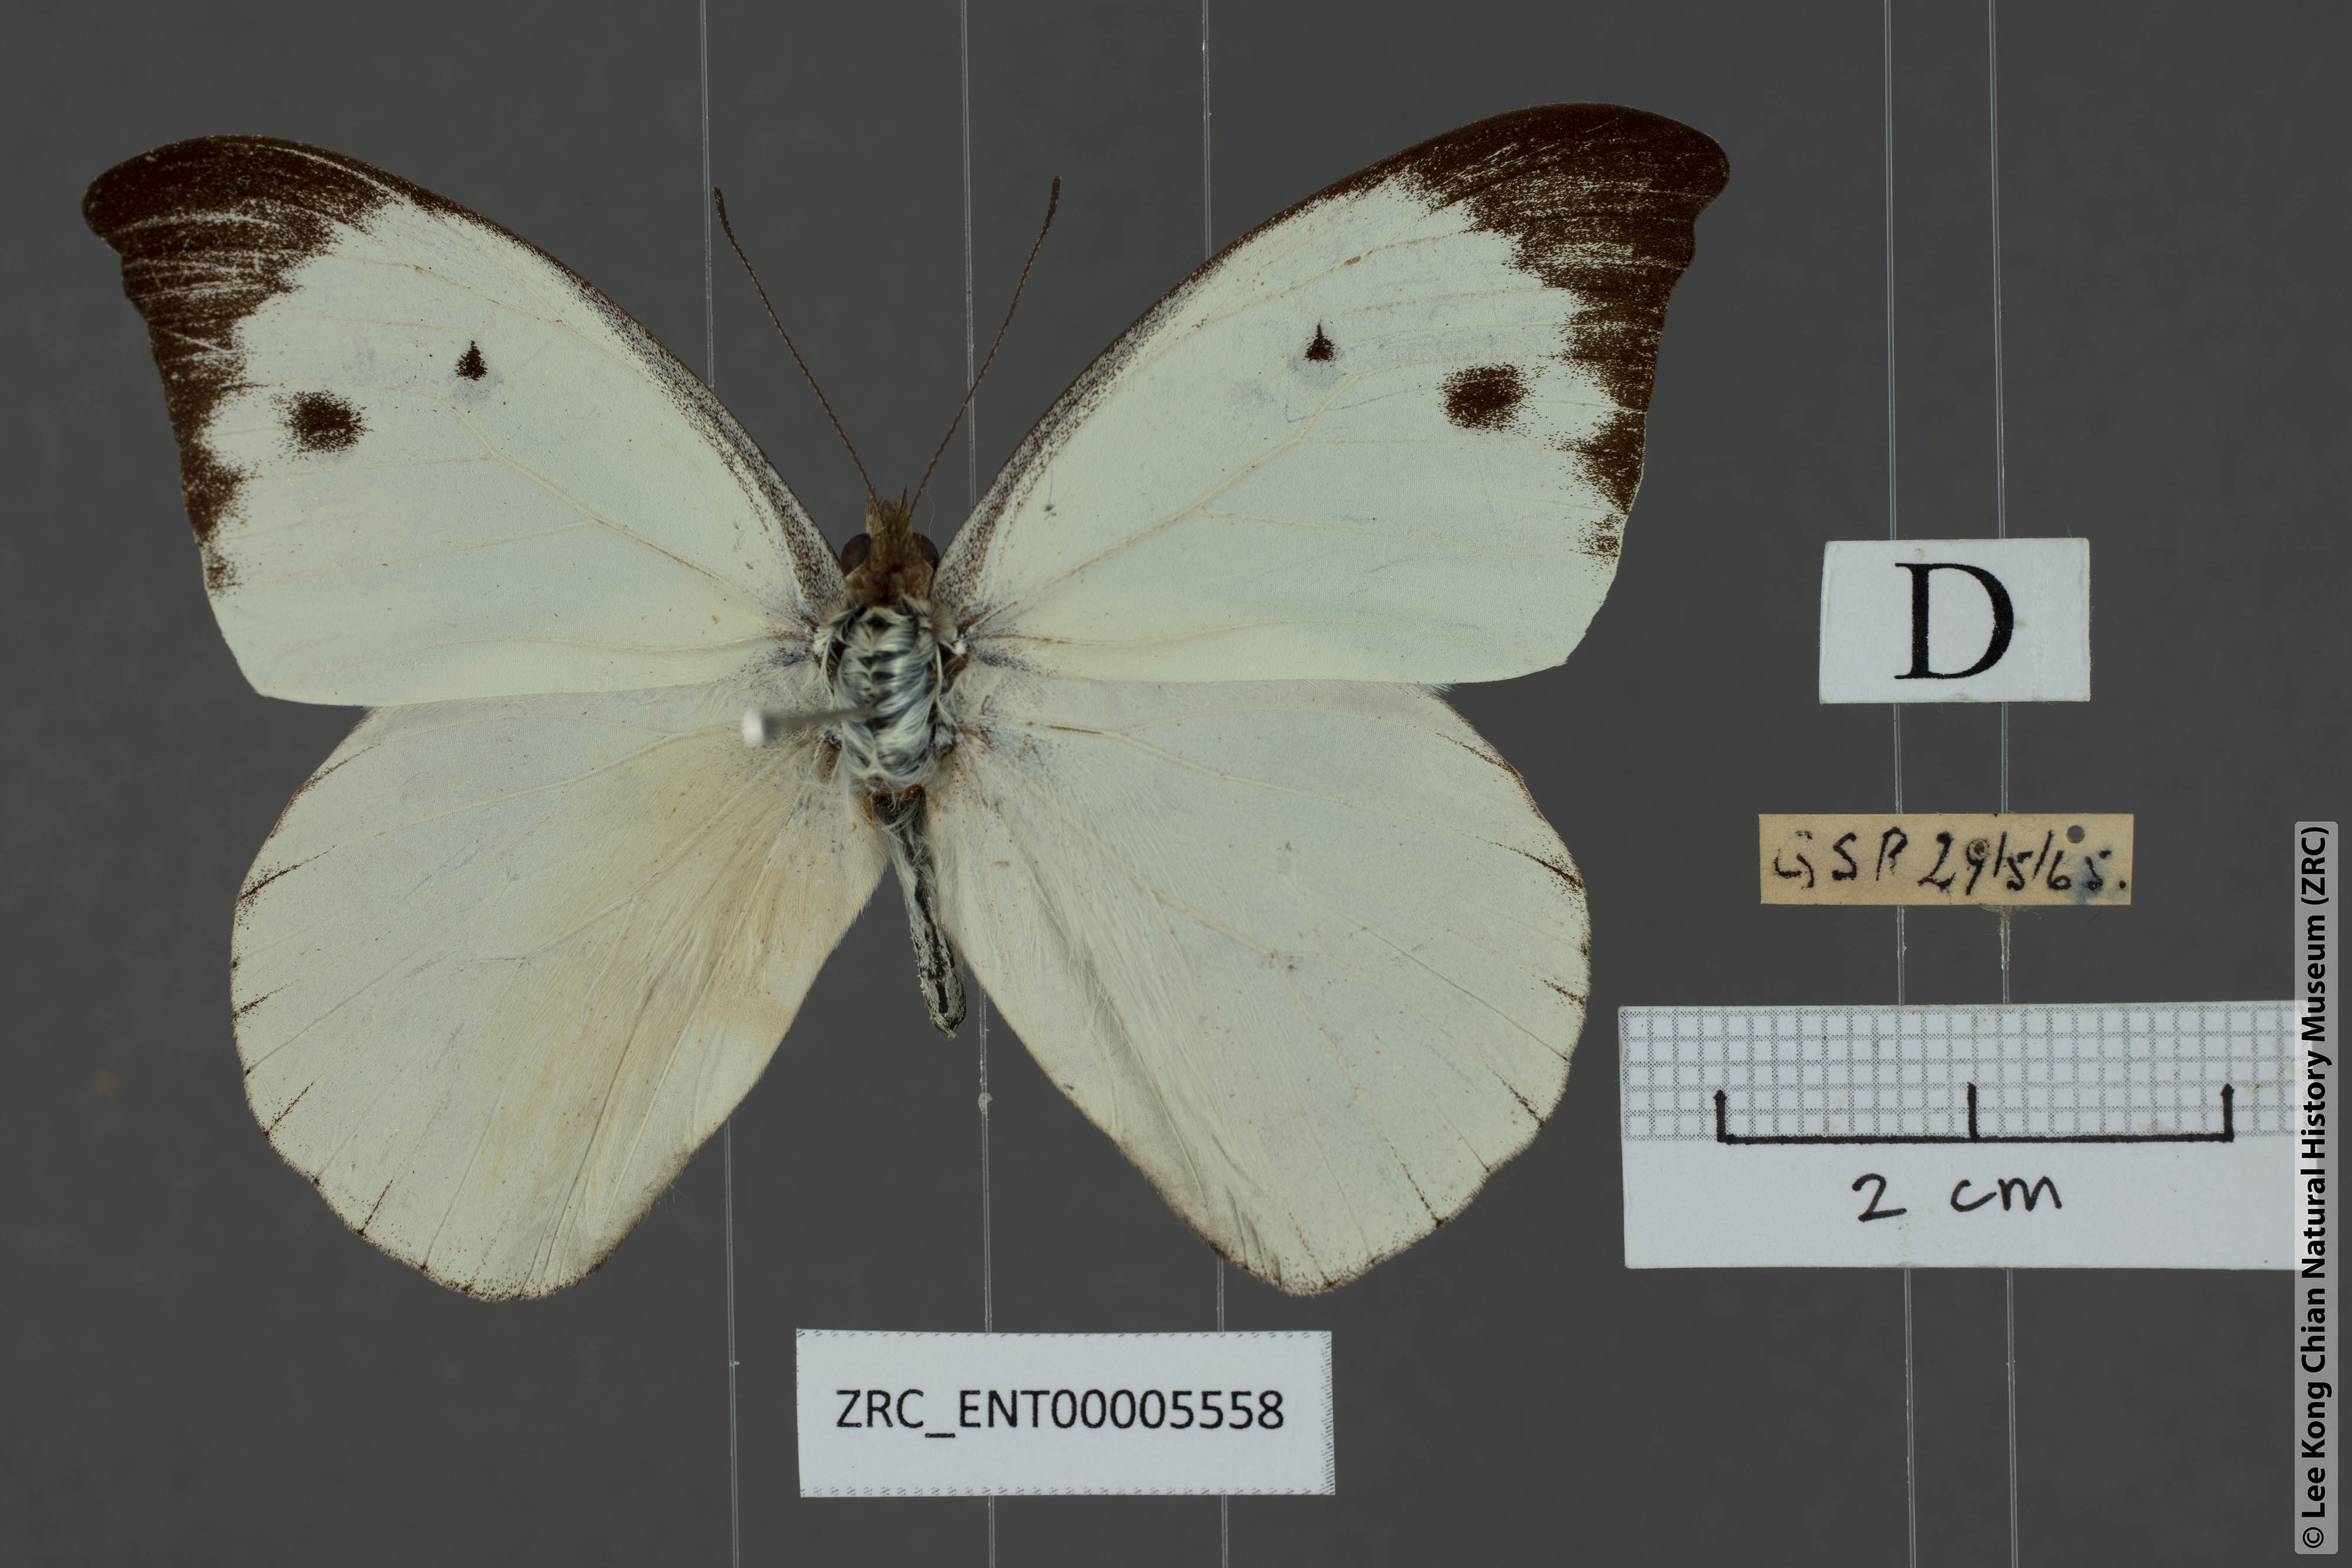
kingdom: Animalia
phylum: Arthropoda
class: Insecta
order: Lepidoptera
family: Pieridae
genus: Appias
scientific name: Appias lalassis
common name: Burmese puffin
